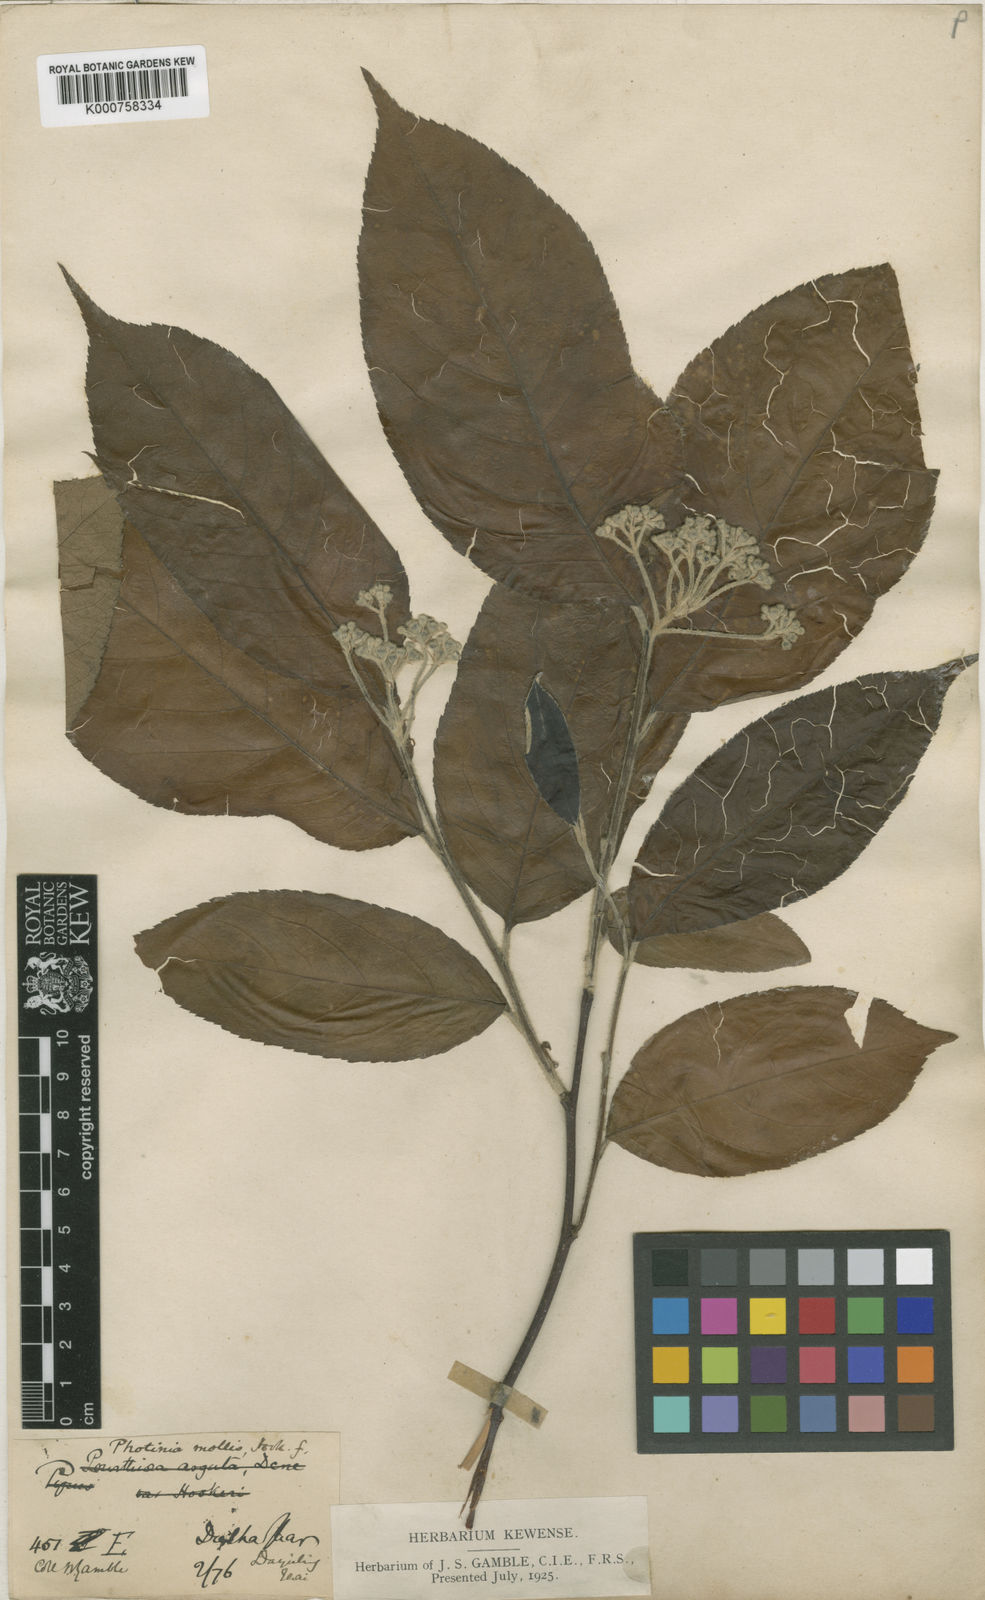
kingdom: Plantae
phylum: Tracheophyta
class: Magnoliopsida
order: Rosales
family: Rosaceae
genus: Photinia
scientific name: Photinia
